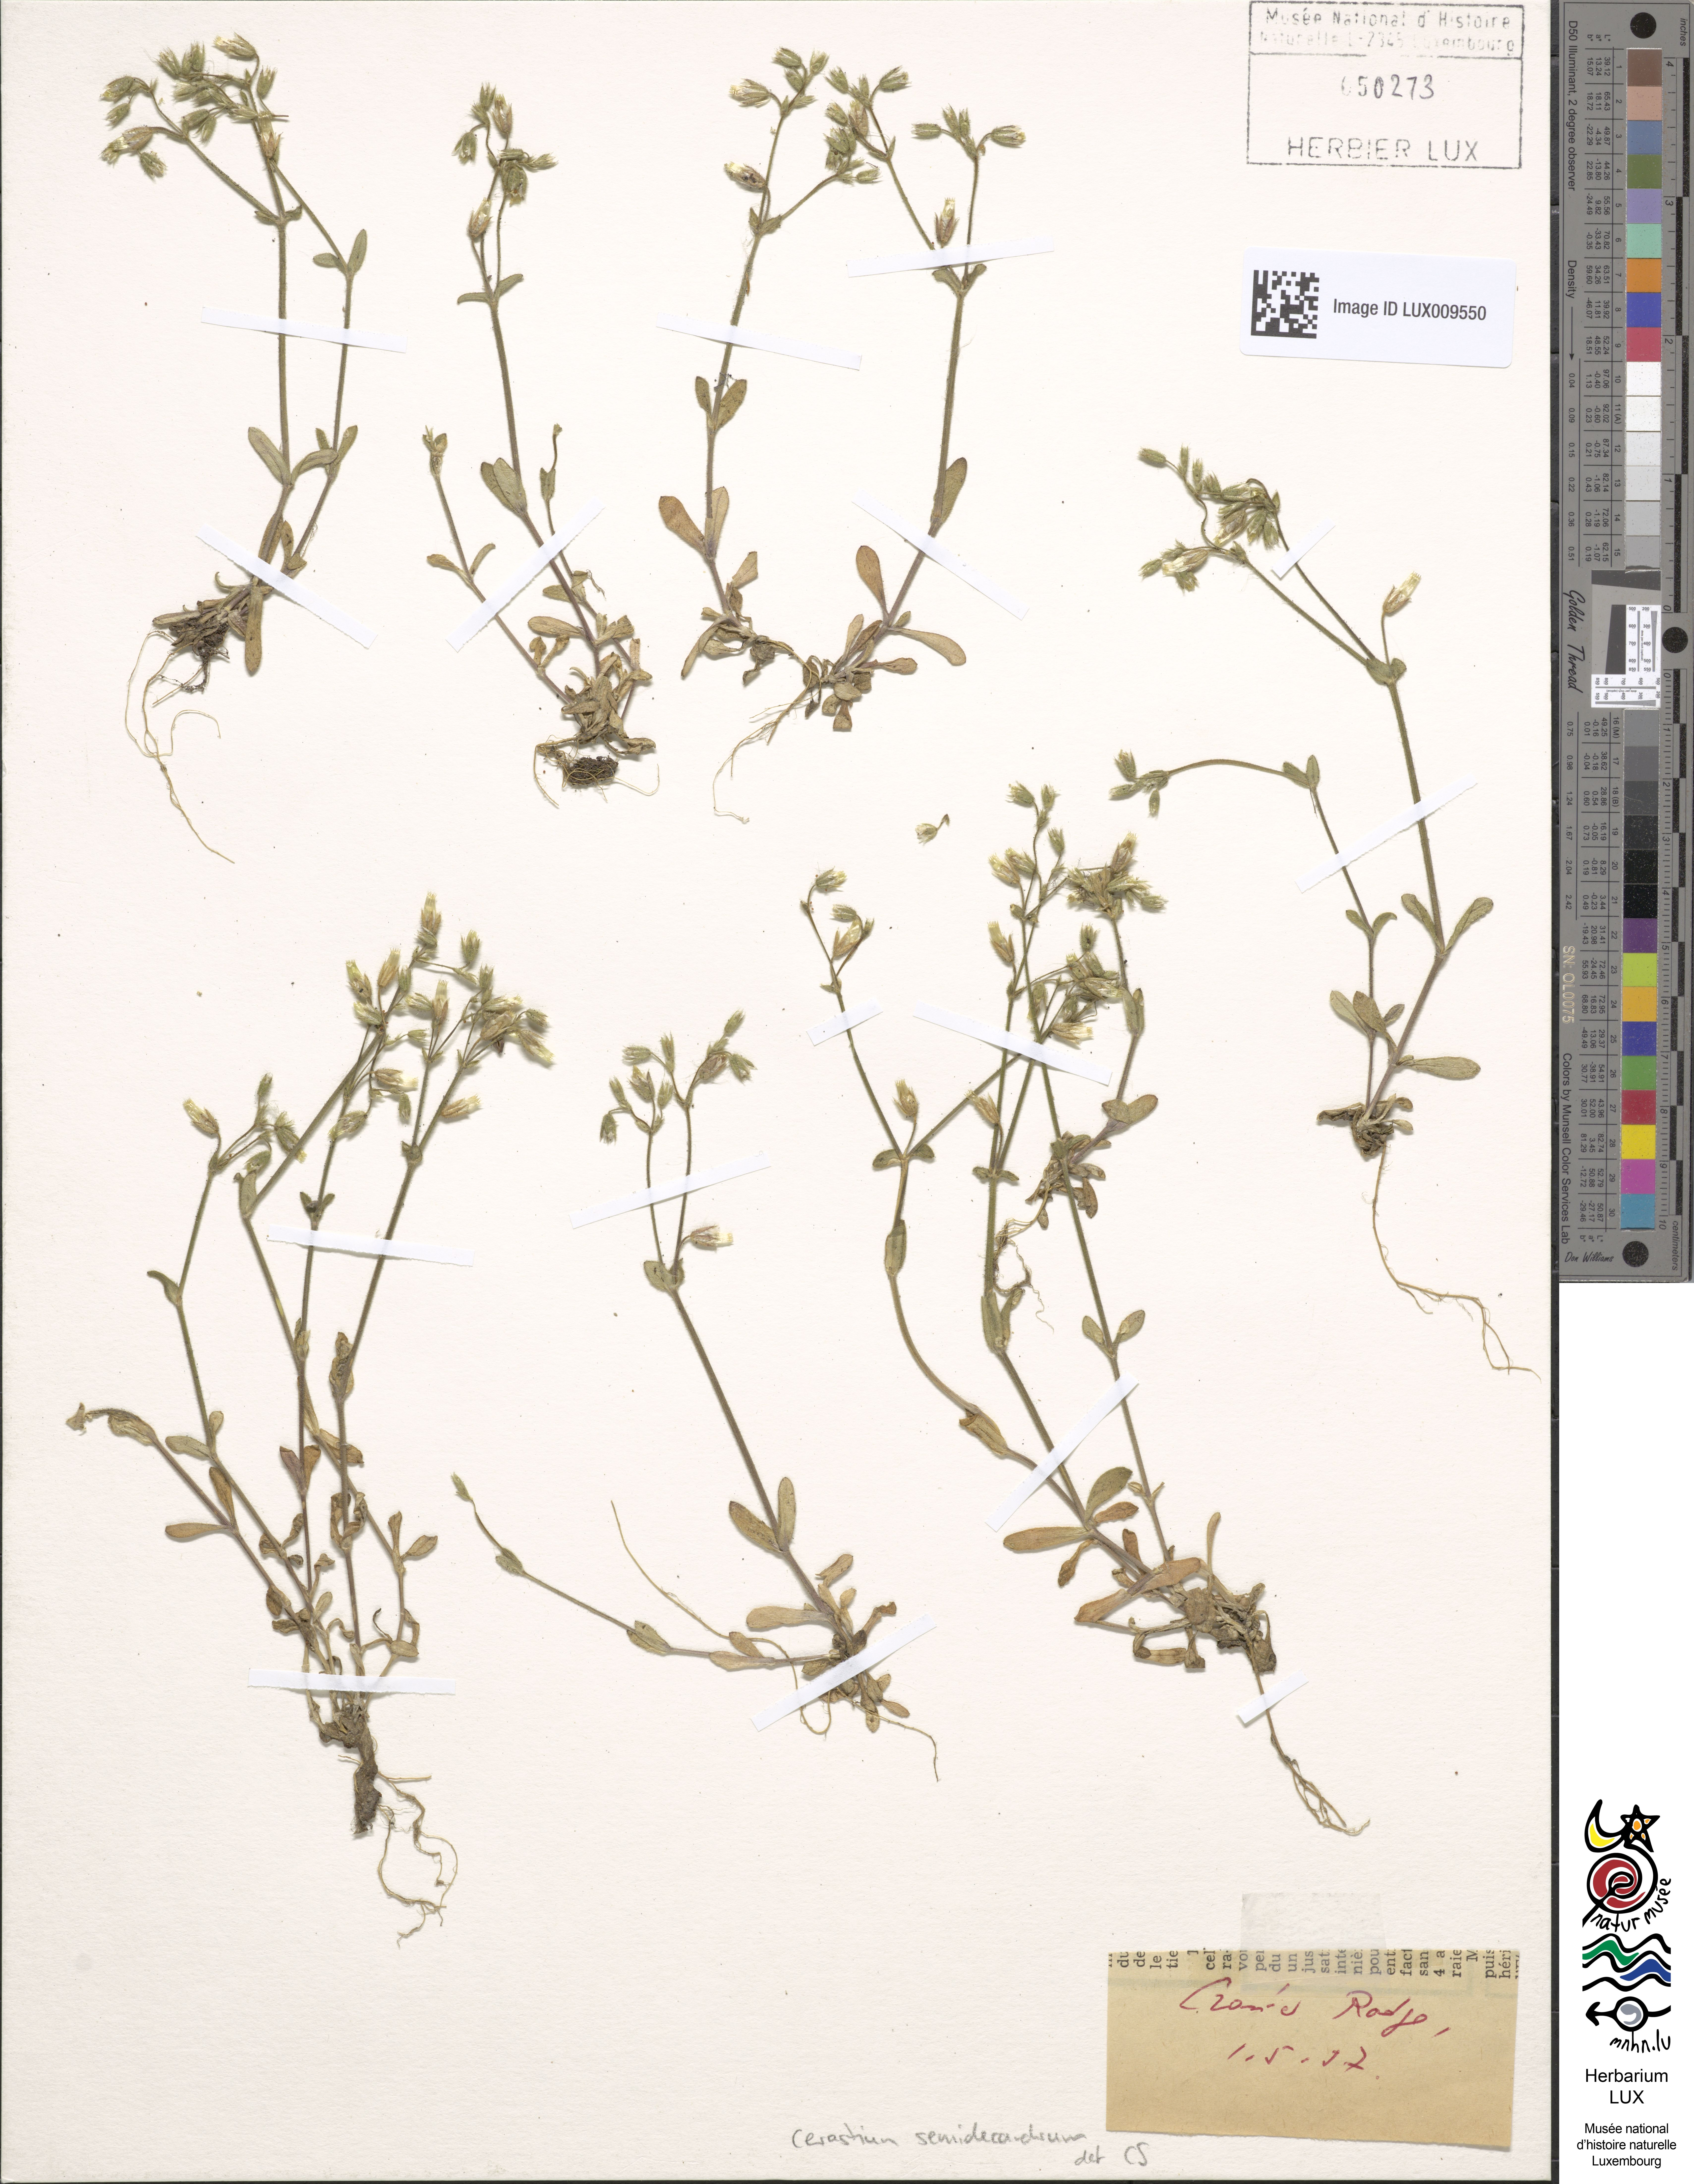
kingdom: Plantae
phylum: Tracheophyta
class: Magnoliopsida
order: Caryophyllales
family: Caryophyllaceae
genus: Cerastium
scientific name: Cerastium semidecandrum
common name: Little mouse-ear
